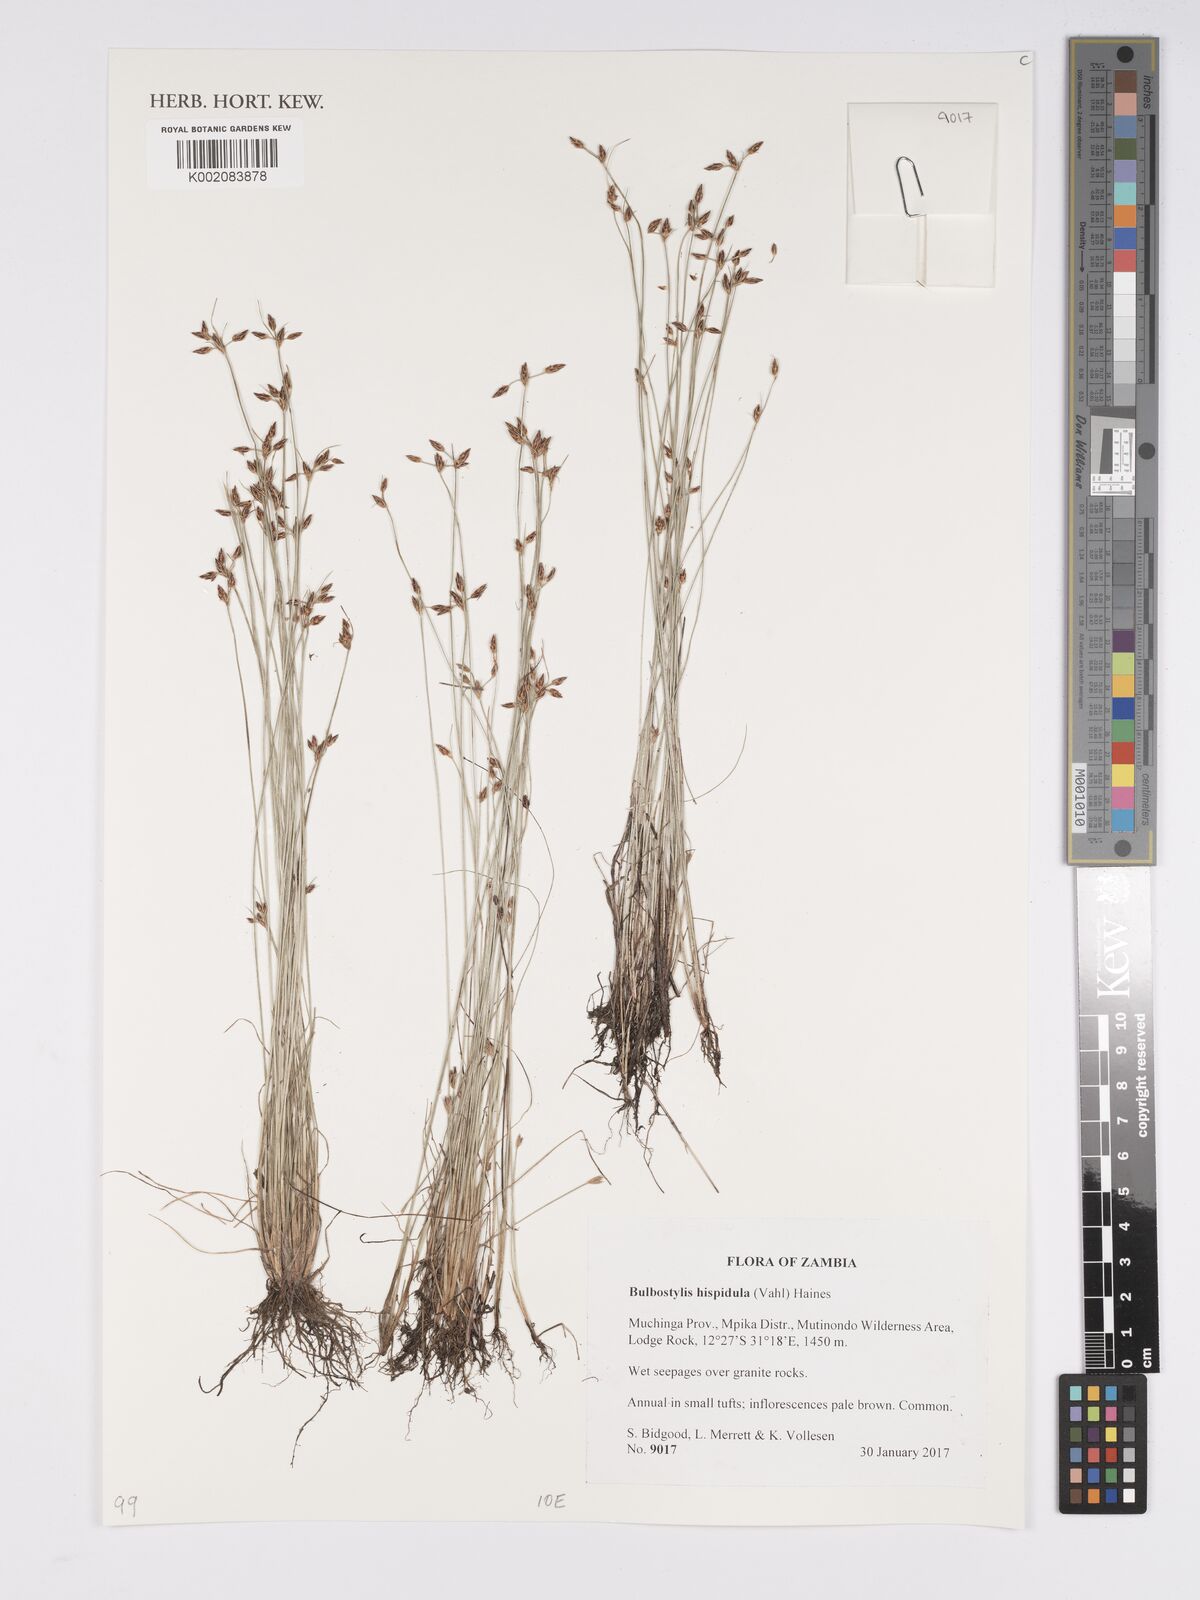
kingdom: Plantae
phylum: Tracheophyta
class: Liliopsida
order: Poales
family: Cyperaceae
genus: Bulbostylis
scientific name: Bulbostylis hispidula
